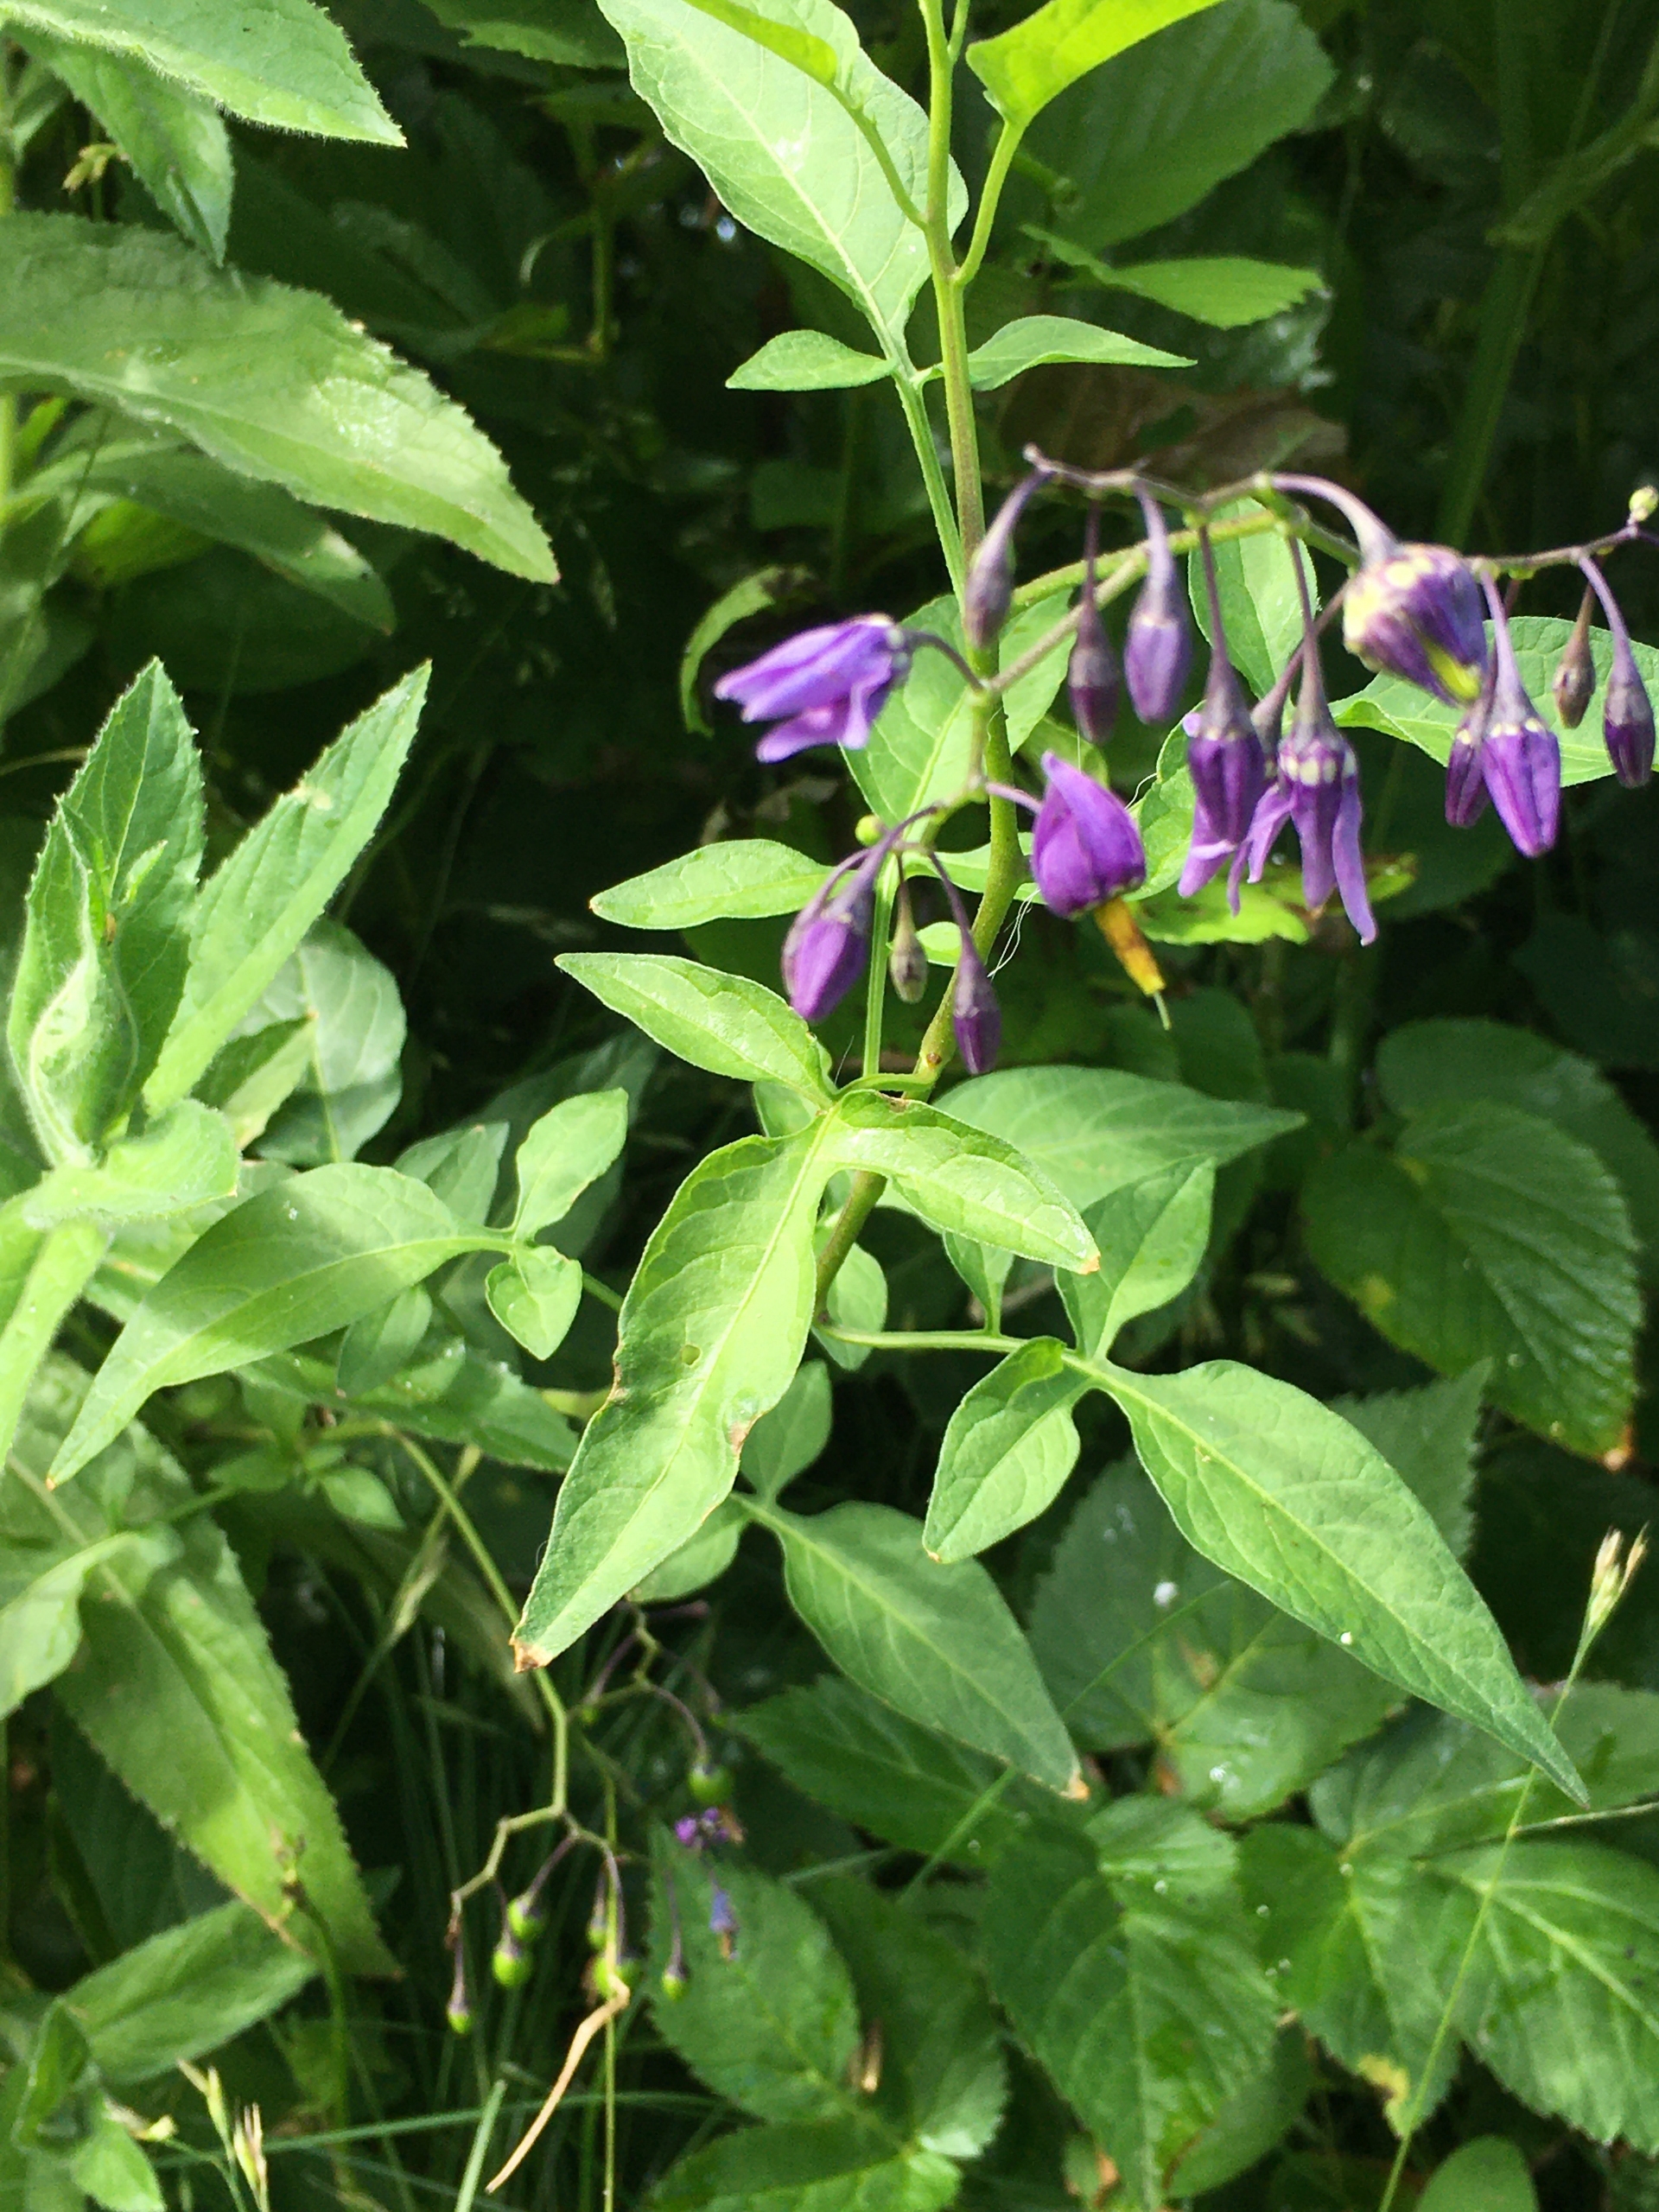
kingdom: Plantae
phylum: Tracheophyta
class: Magnoliopsida
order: Solanales
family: Solanaceae
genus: Solanum
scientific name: Solanum dulcamara
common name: Bittersød natskygge
